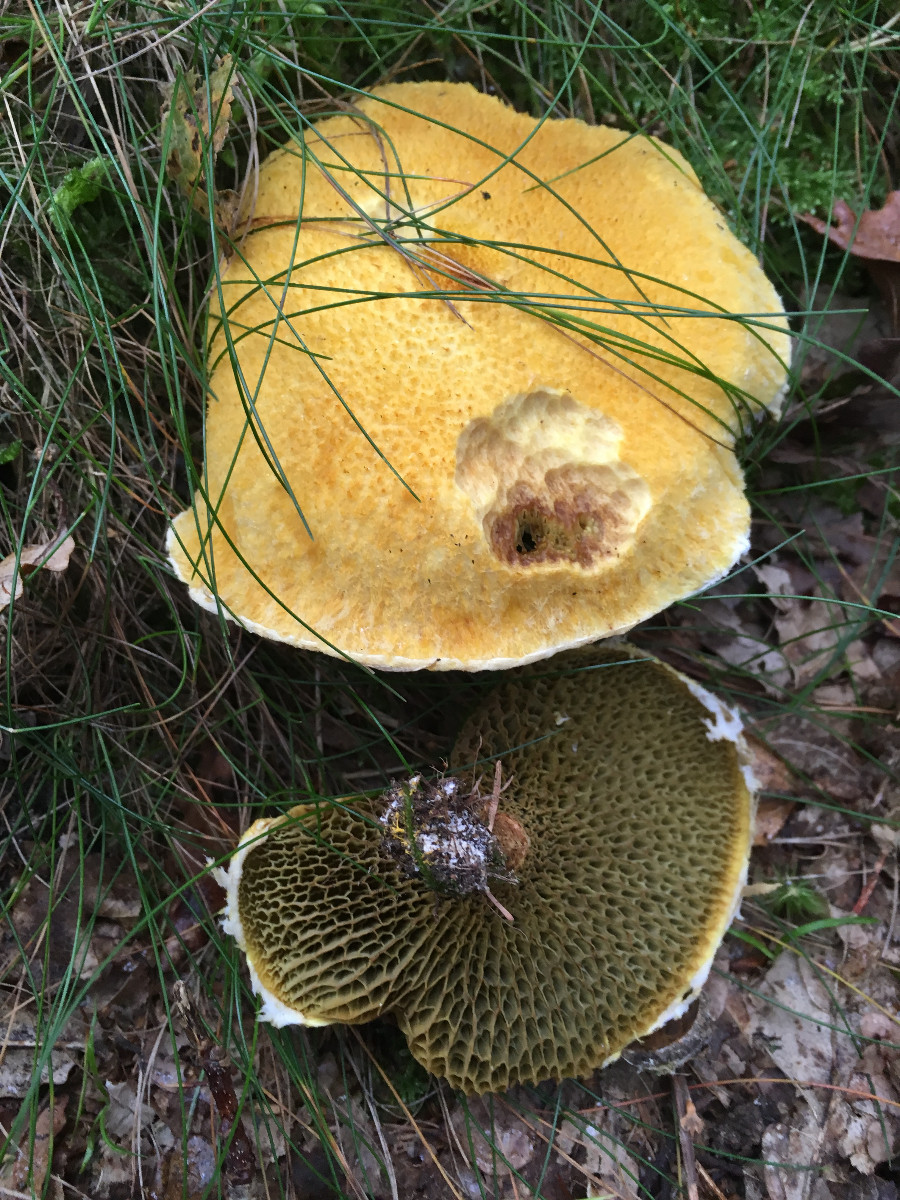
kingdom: Fungi
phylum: Basidiomycota
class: Agaricomycetes
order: Boletales
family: Suillaceae
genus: Suillus
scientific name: Suillus cavipes
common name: hulstokket slimrørhat
